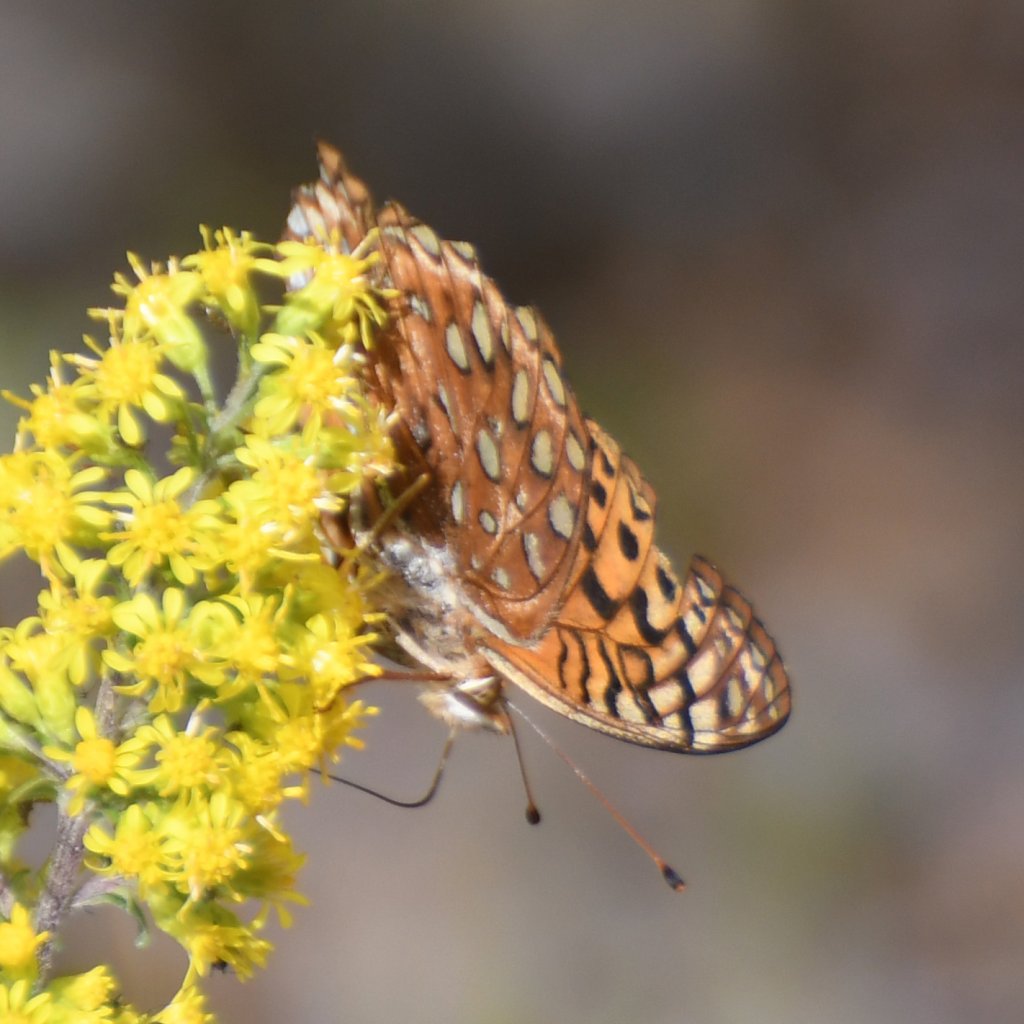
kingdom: Animalia
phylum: Arthropoda
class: Insecta
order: Lepidoptera
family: Nymphalidae
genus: Speyeria
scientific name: Speyeria aphrodite
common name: Aphrodite Fritillary
